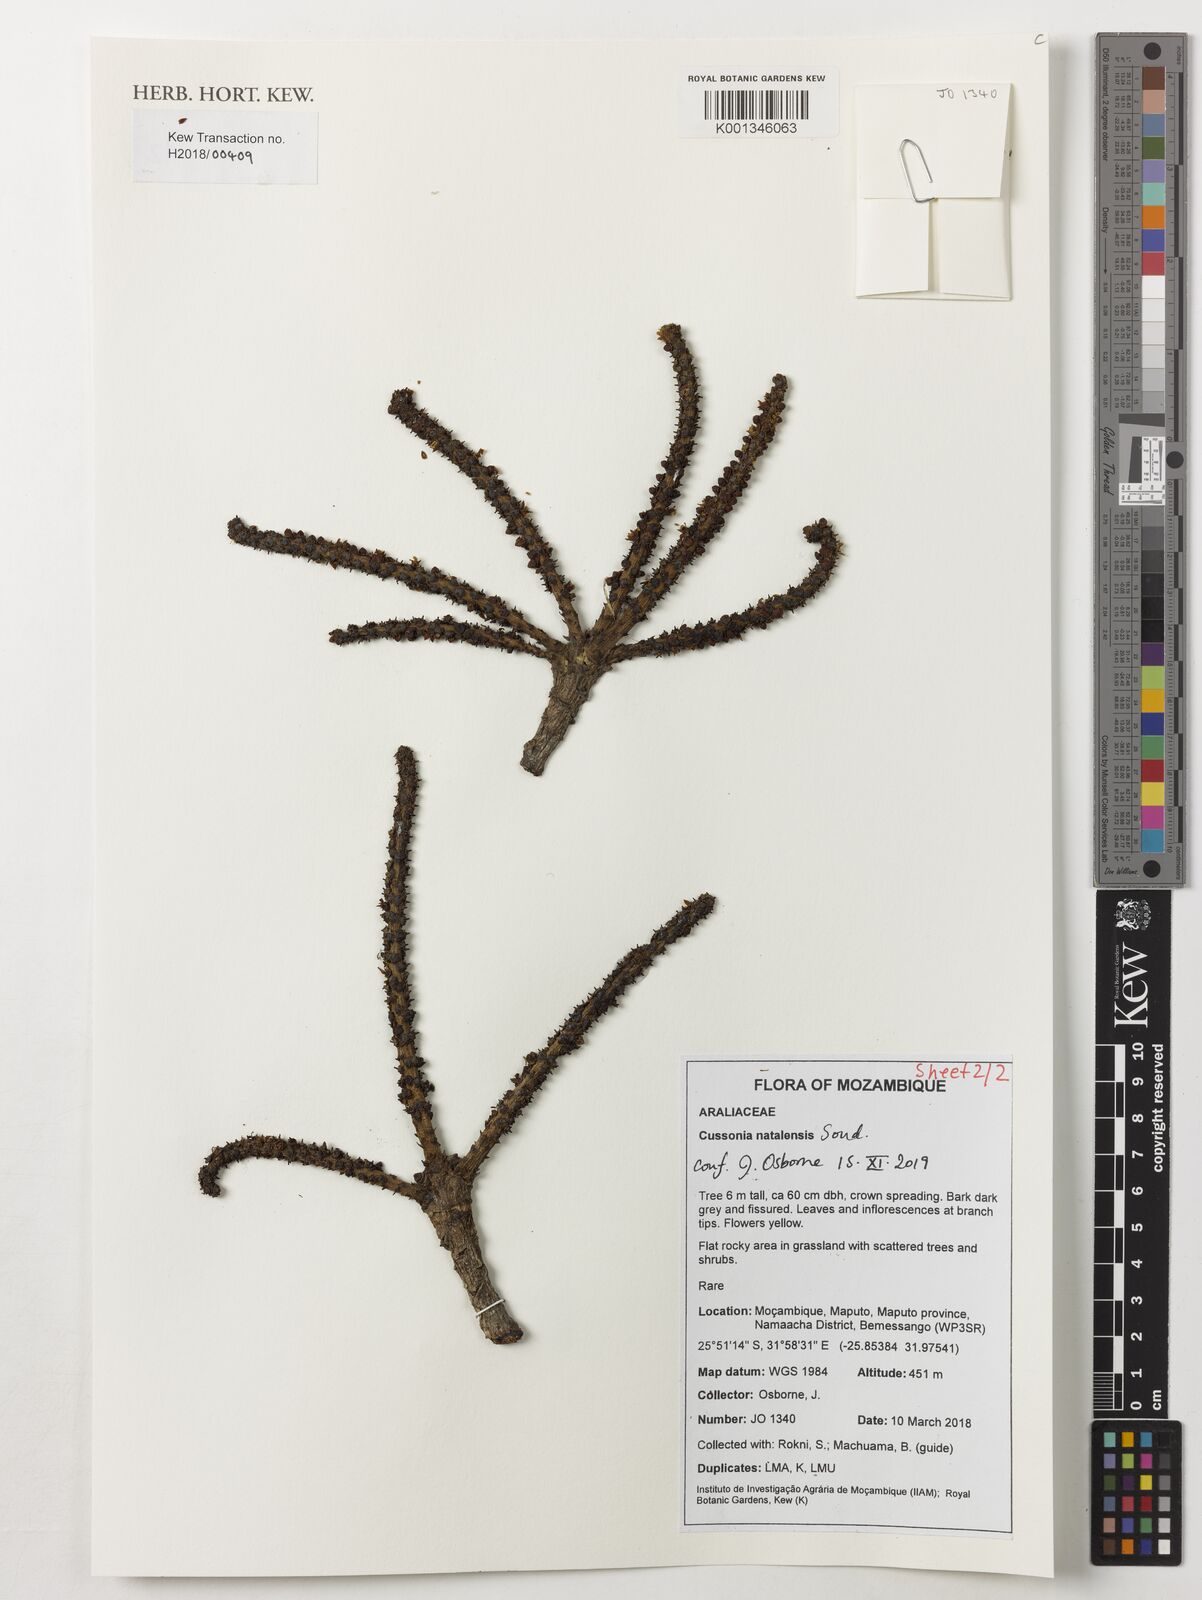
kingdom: Plantae
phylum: Tracheophyta
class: Magnoliopsida
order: Apiales
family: Araliaceae
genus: Cussonia
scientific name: Cussonia natalensis
